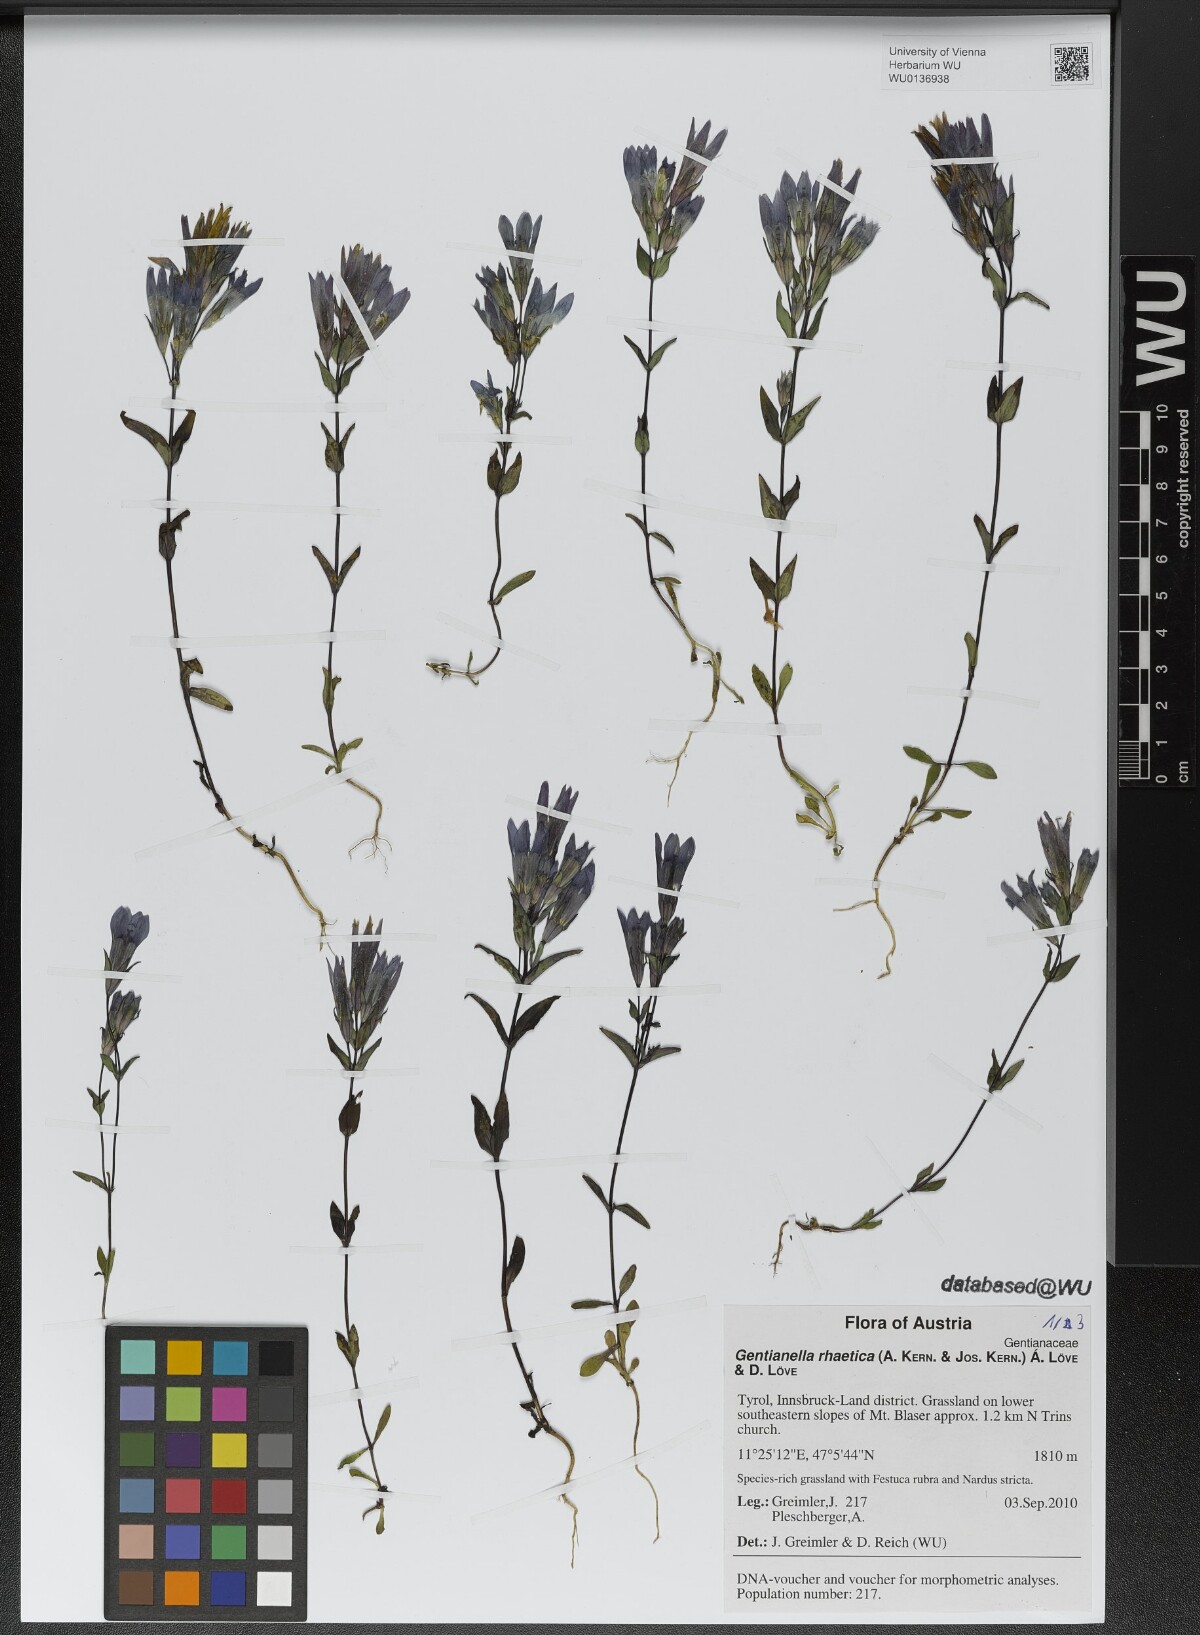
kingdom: Plantae
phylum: Tracheophyta
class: Magnoliopsida
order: Gentianales
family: Gentianaceae
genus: Gentianella
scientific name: Gentianella rhaetica
